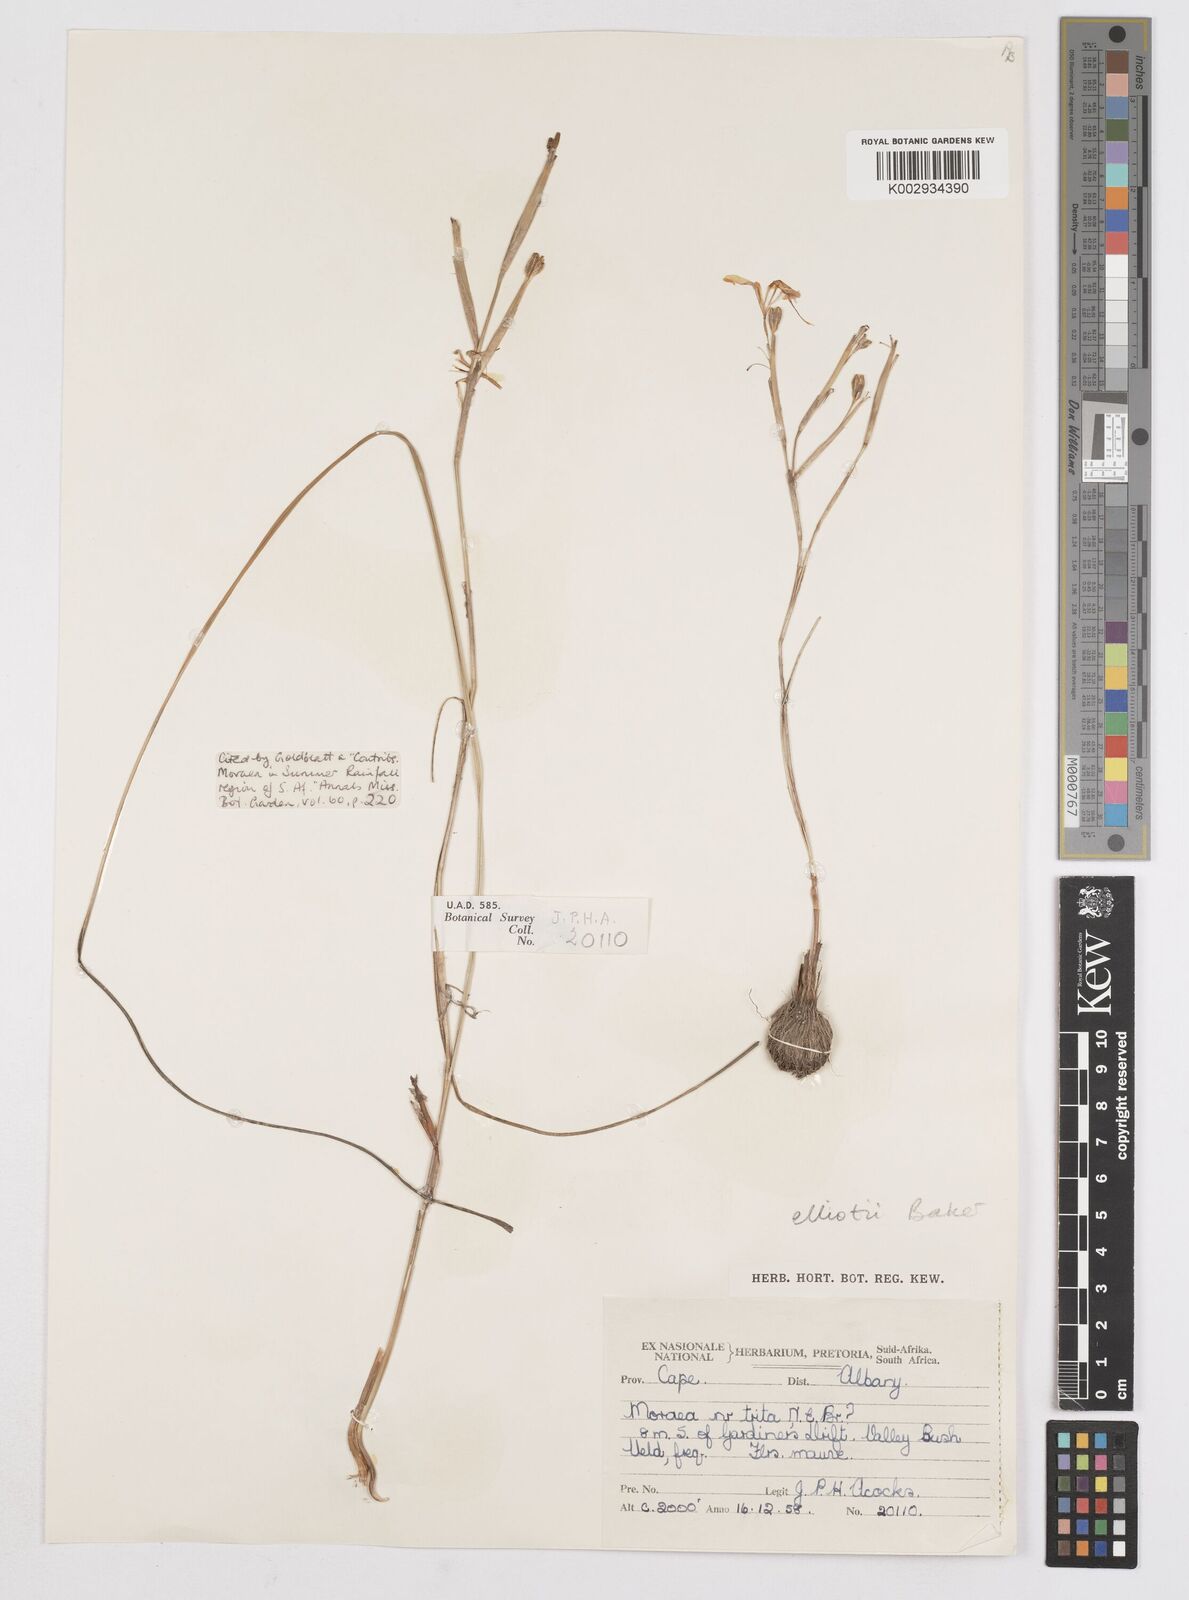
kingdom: Plantae
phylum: Tracheophyta
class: Liliopsida
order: Asparagales
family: Iridaceae
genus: Moraea
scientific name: Moraea elliotii
